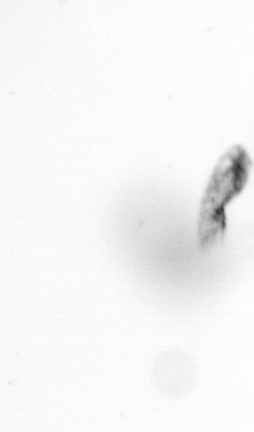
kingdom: Animalia
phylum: Arthropoda
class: Copepoda
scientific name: Copepoda
